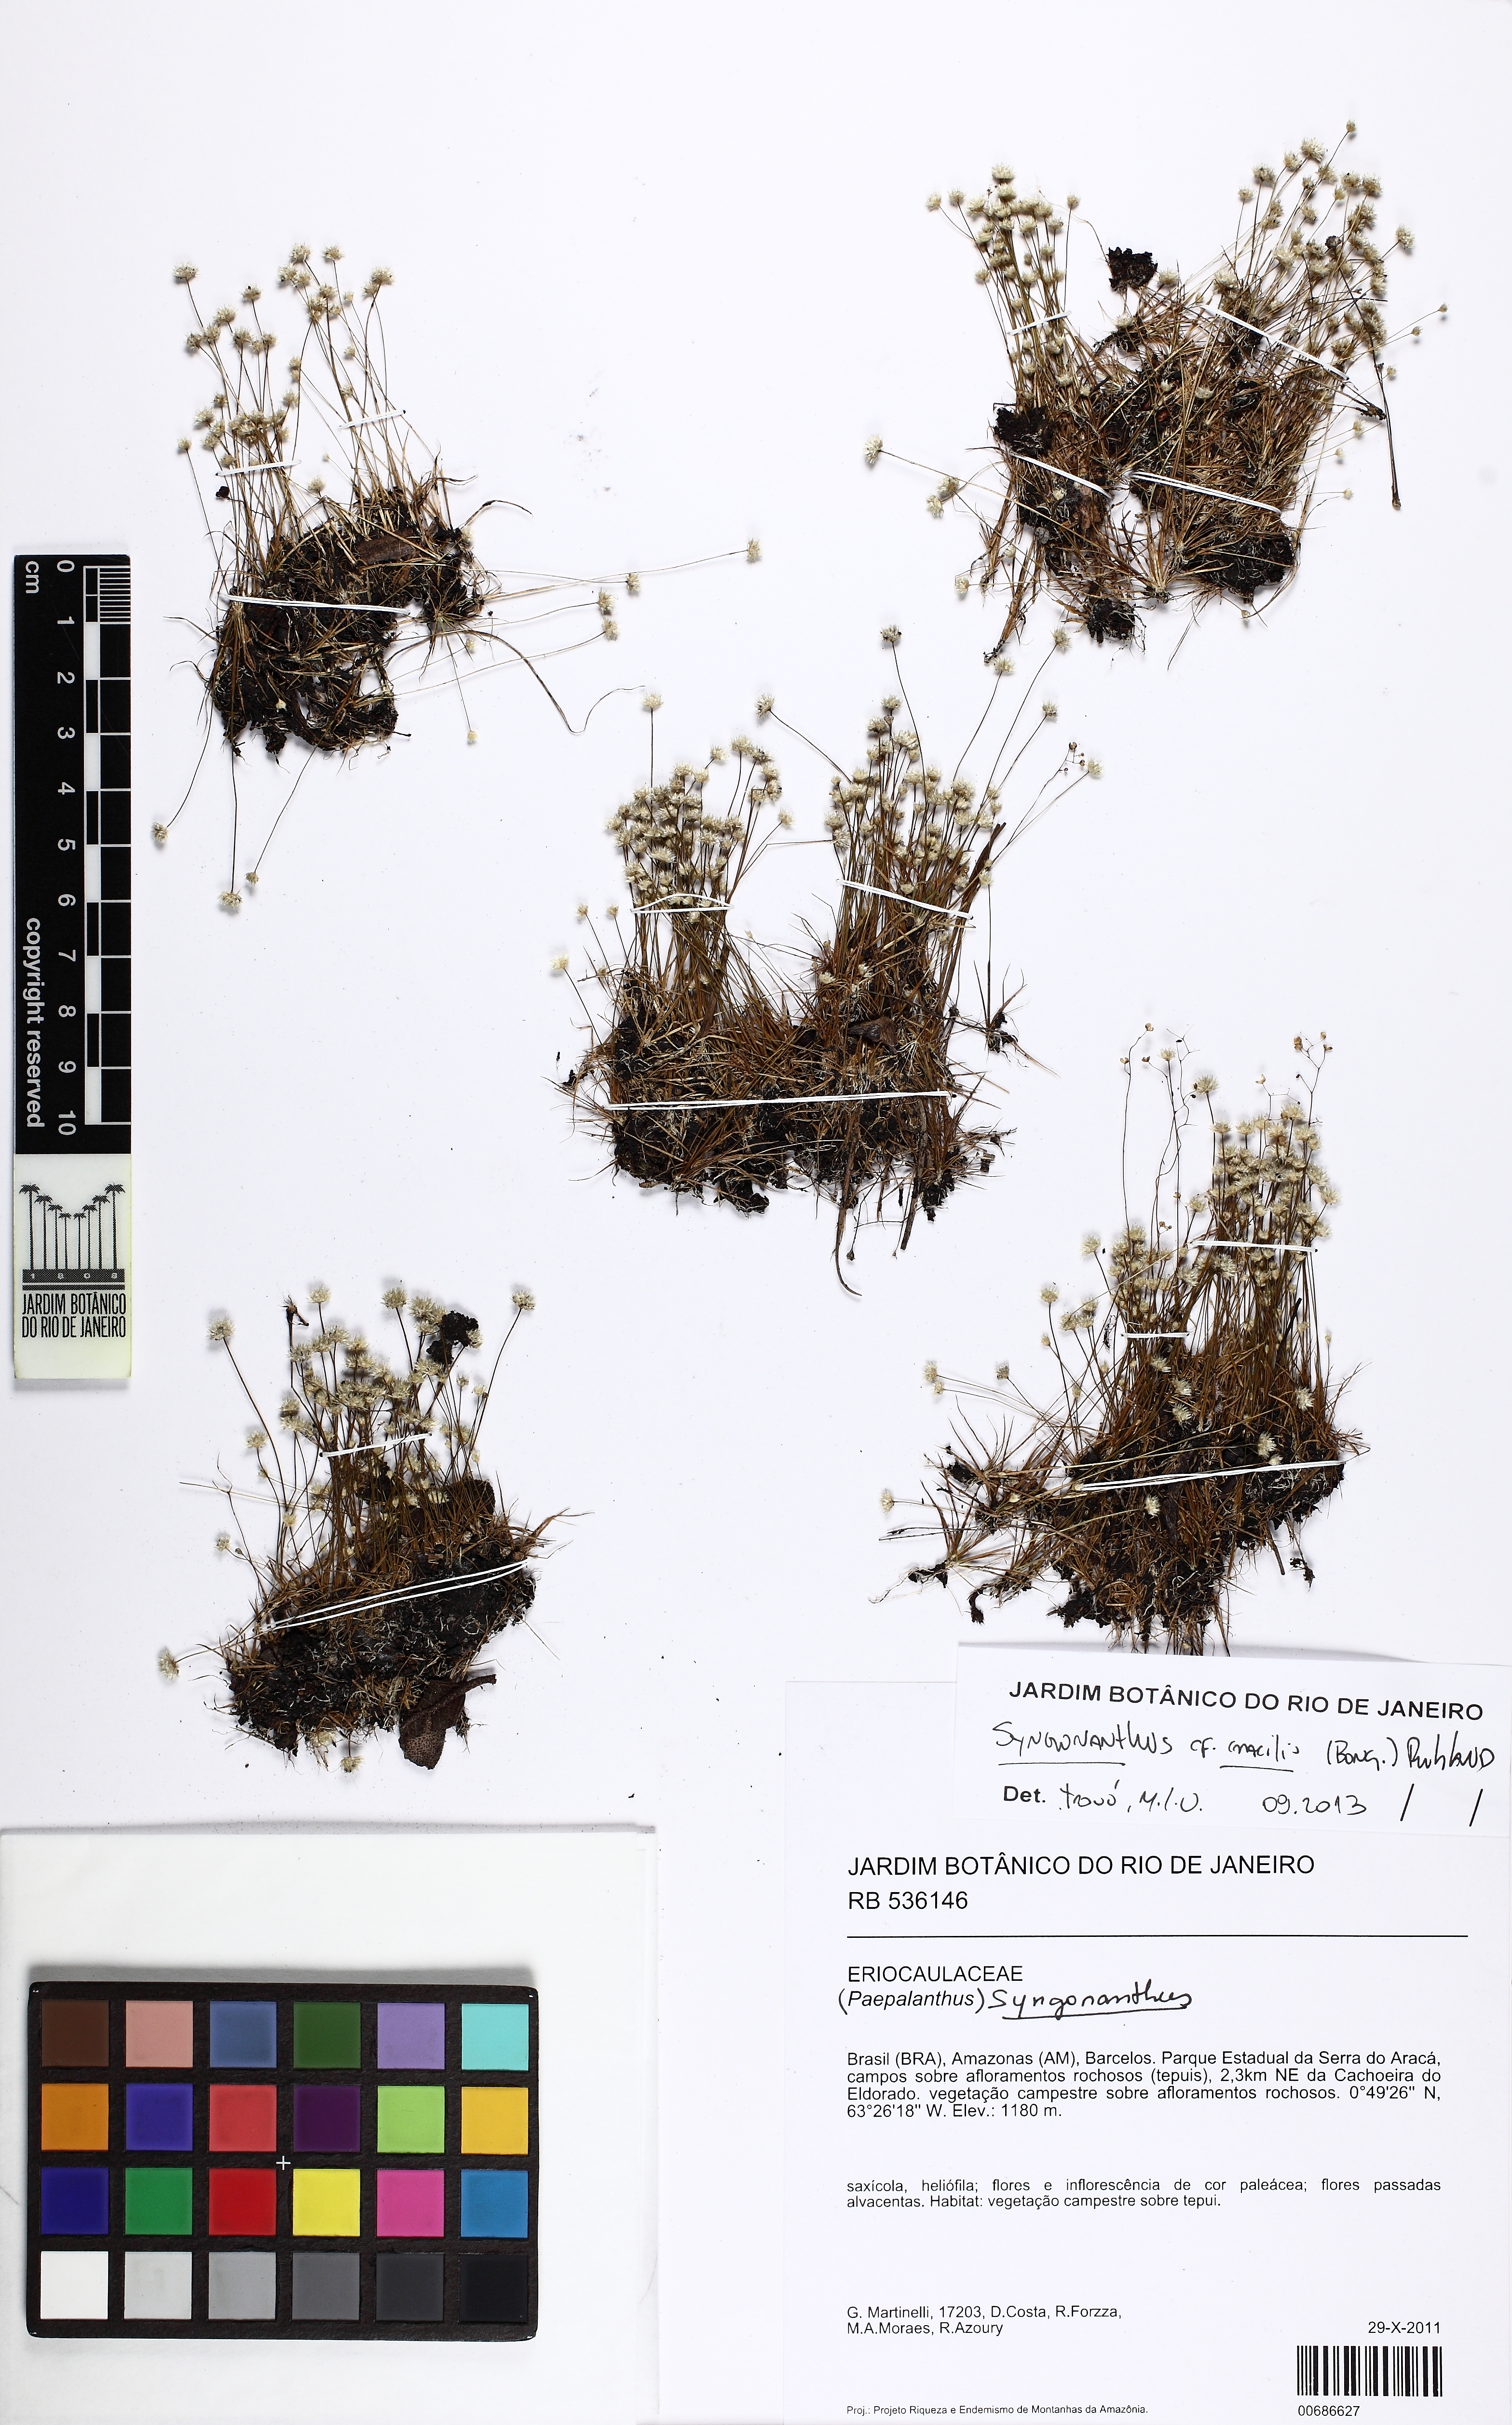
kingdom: Plantae
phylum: Tracheophyta
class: Liliopsida
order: Poales
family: Eriocaulaceae
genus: Syngonanthus
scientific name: Syngonanthus simplex
